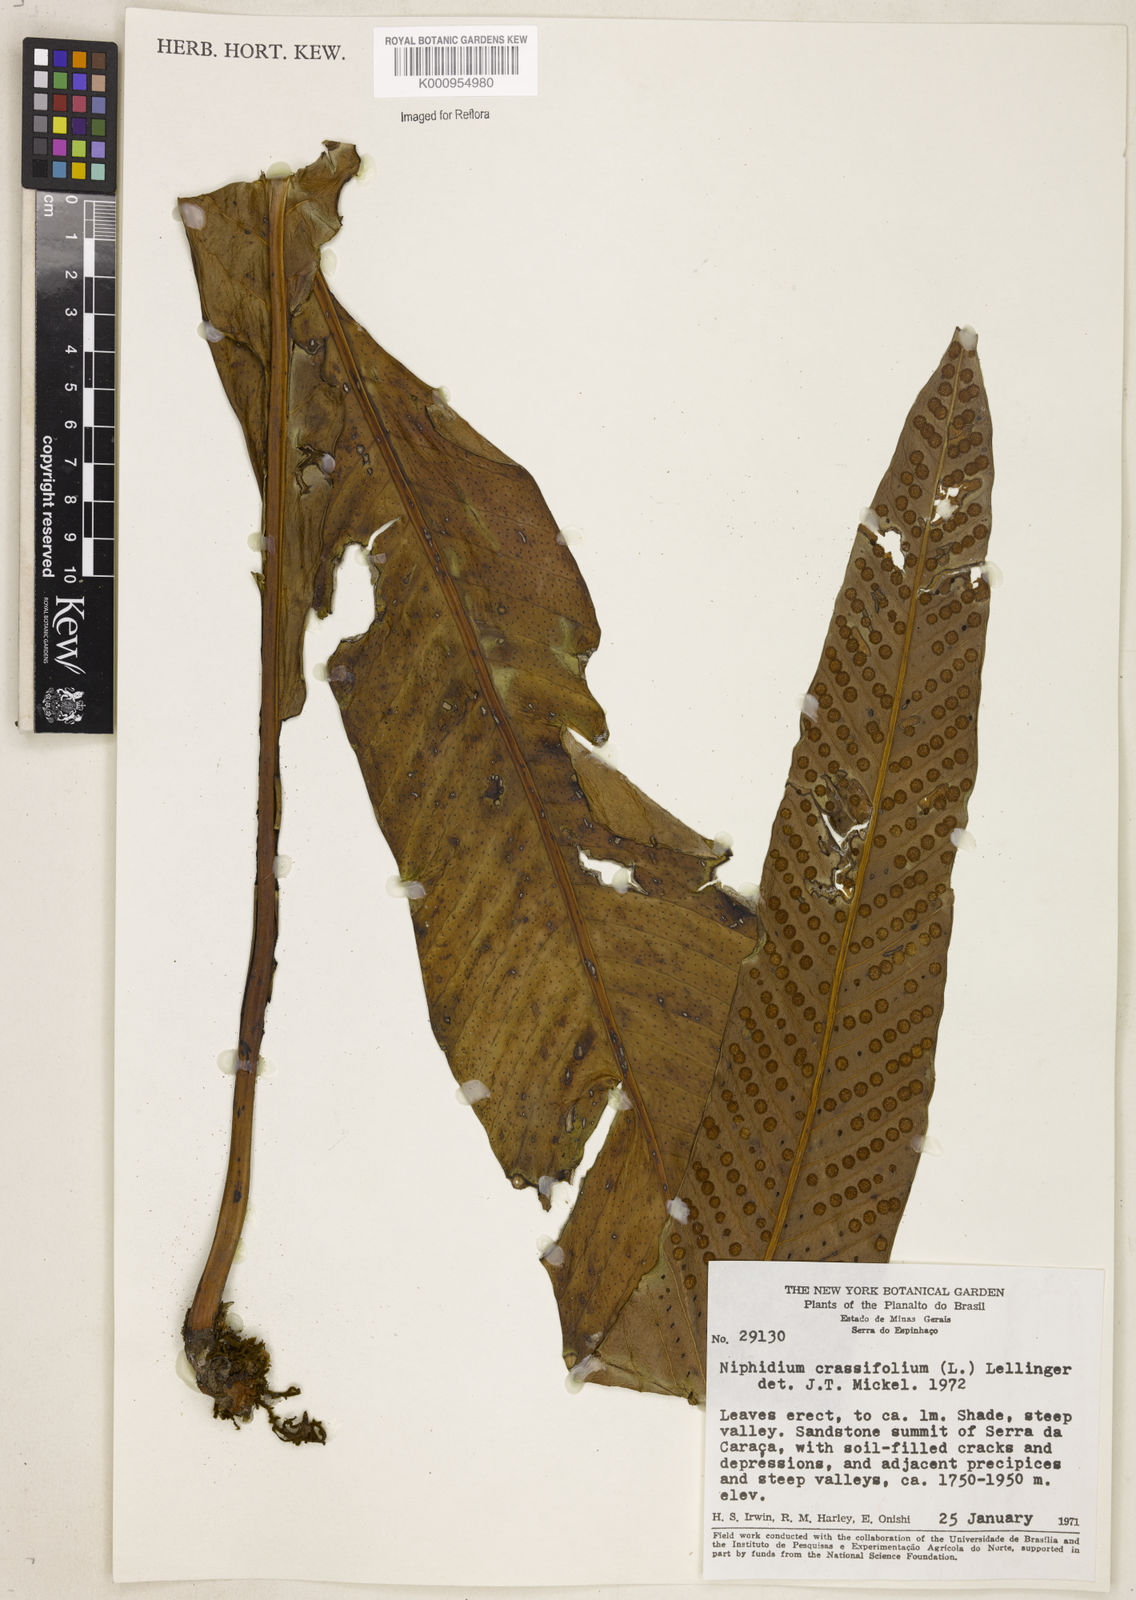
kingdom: Plantae
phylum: Tracheophyta
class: Polypodiopsida
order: Polypodiales
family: Polypodiaceae
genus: Niphidium
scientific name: Niphidium crassifolium
